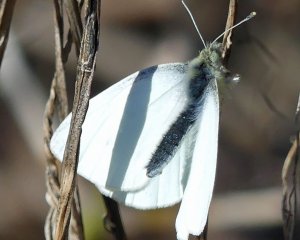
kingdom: Animalia
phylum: Arthropoda
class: Insecta
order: Lepidoptera
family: Pieridae
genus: Pieris
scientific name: Pieris rapae
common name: Cabbage White
